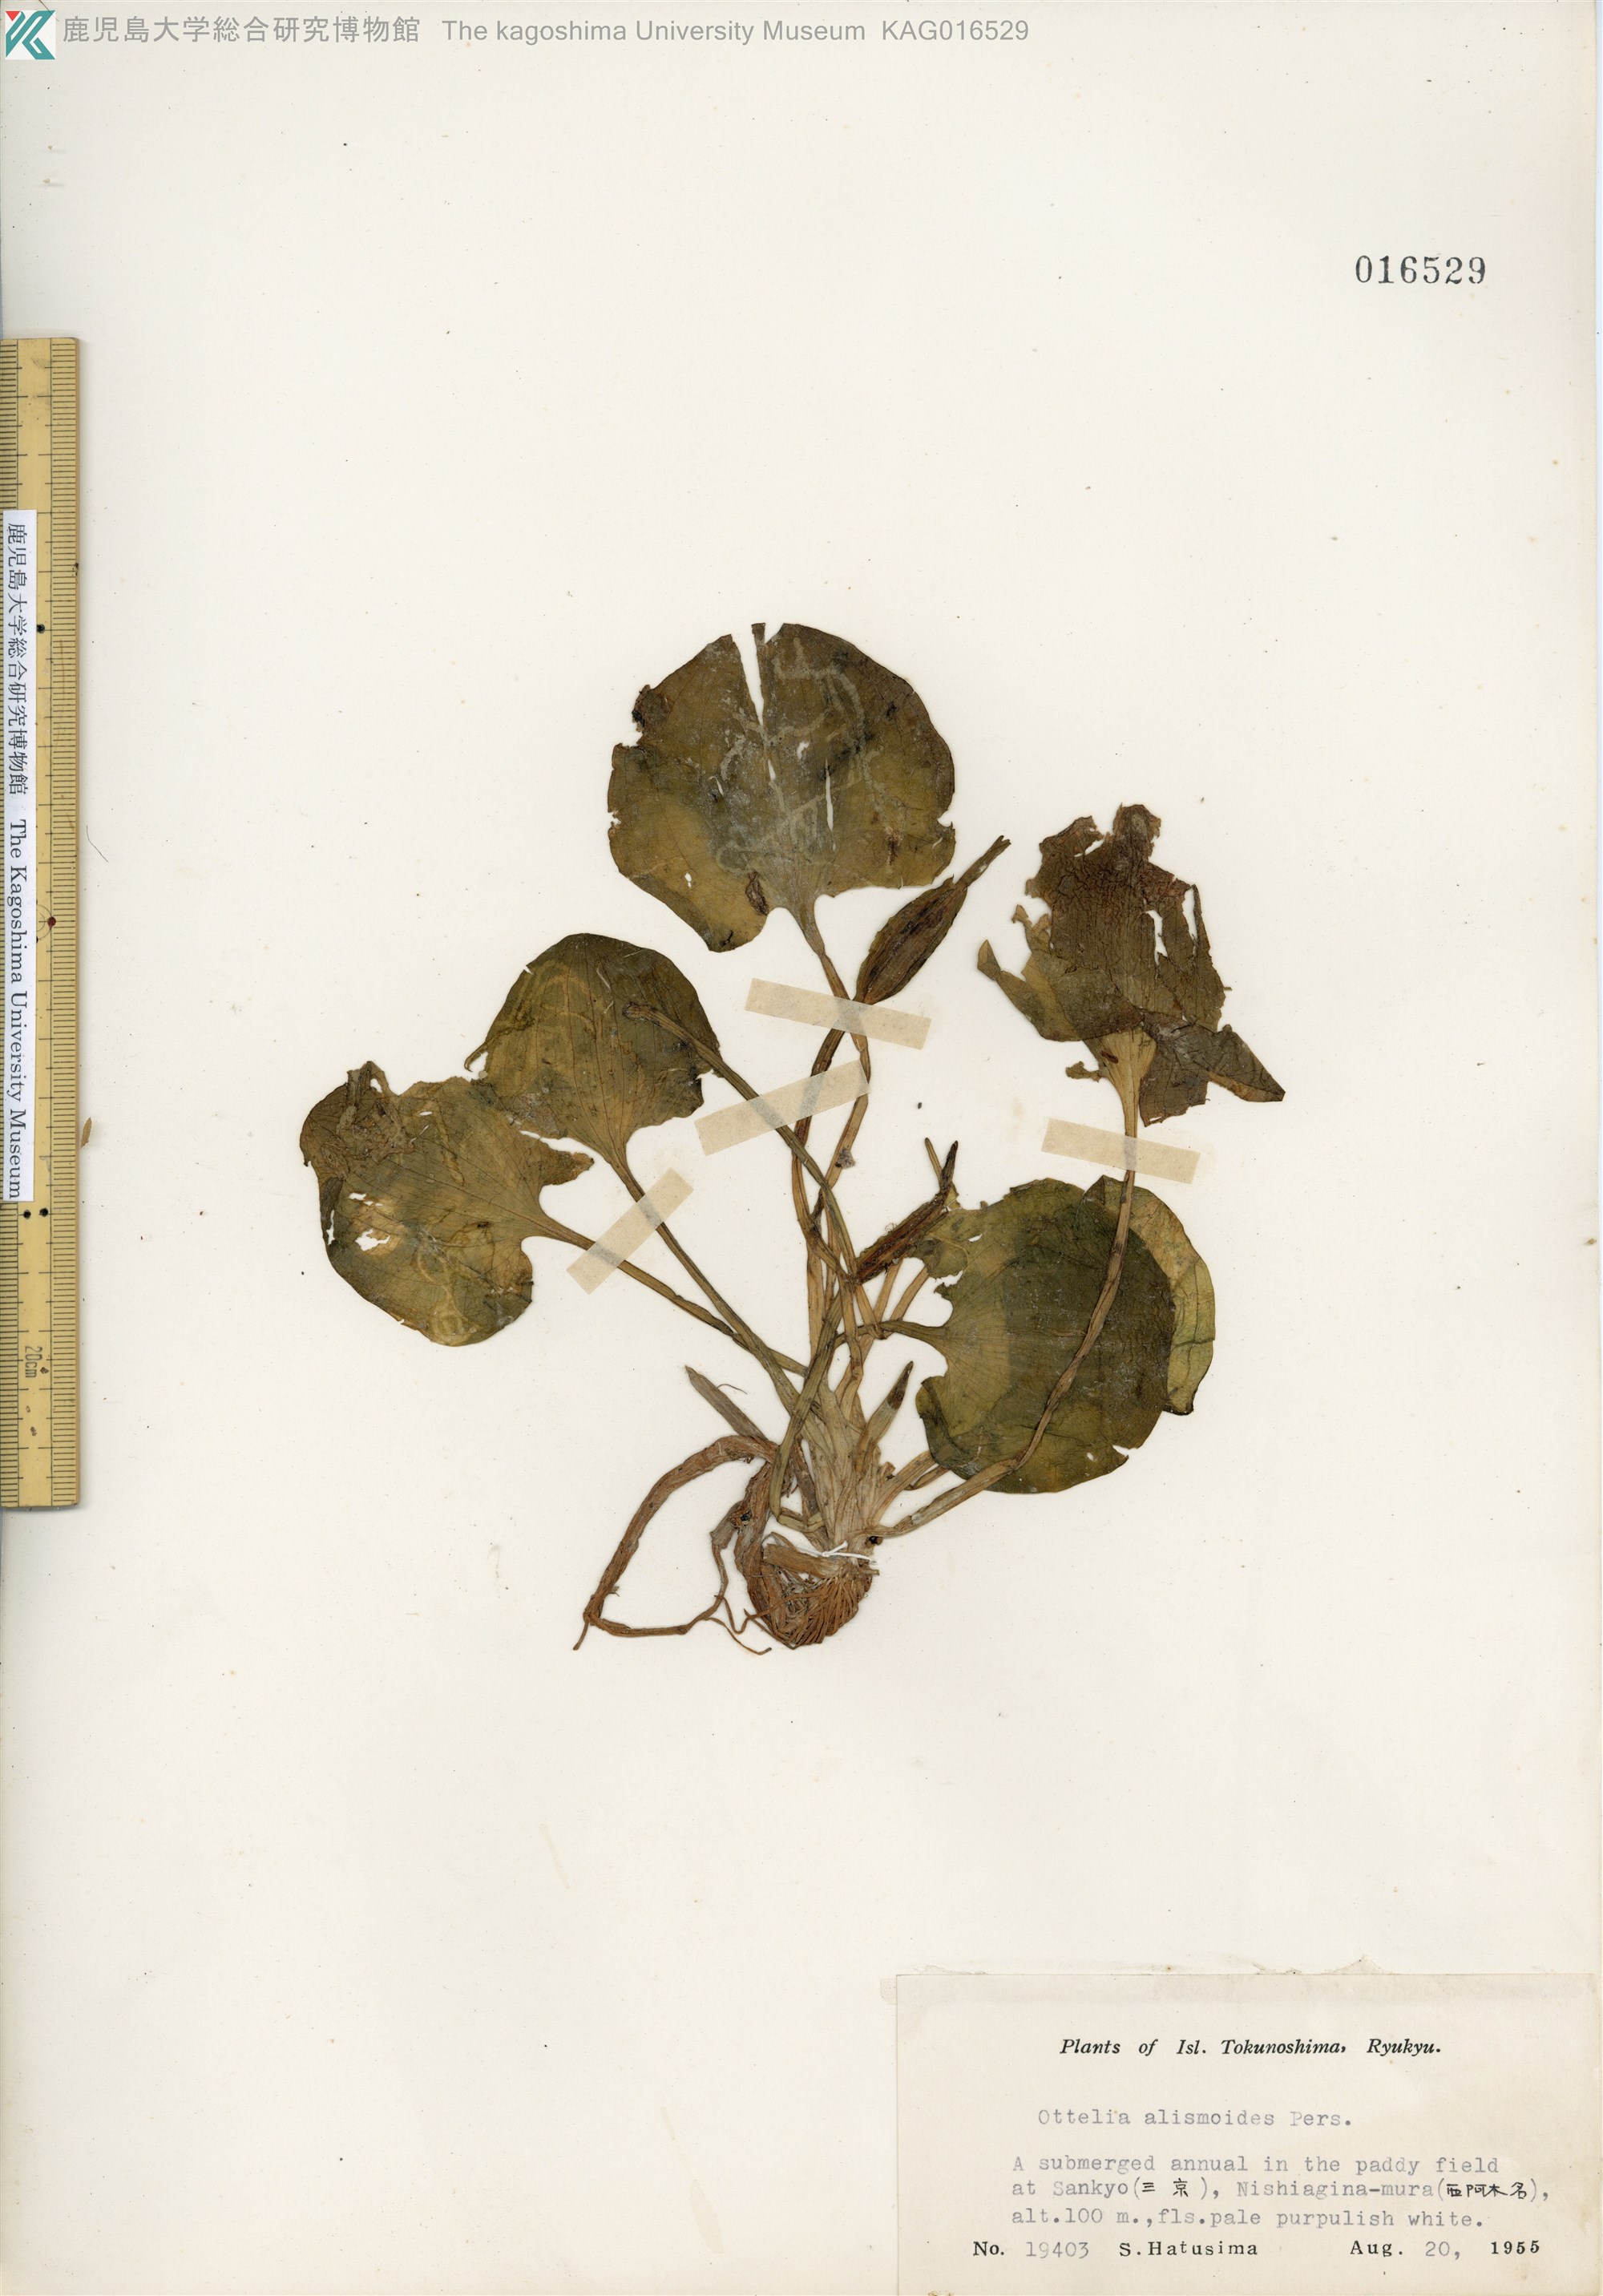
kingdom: Plantae
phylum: Tracheophyta
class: Liliopsida
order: Alismatales
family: Hydrocharitaceae
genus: Ottelia
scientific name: Ottelia alismoides
